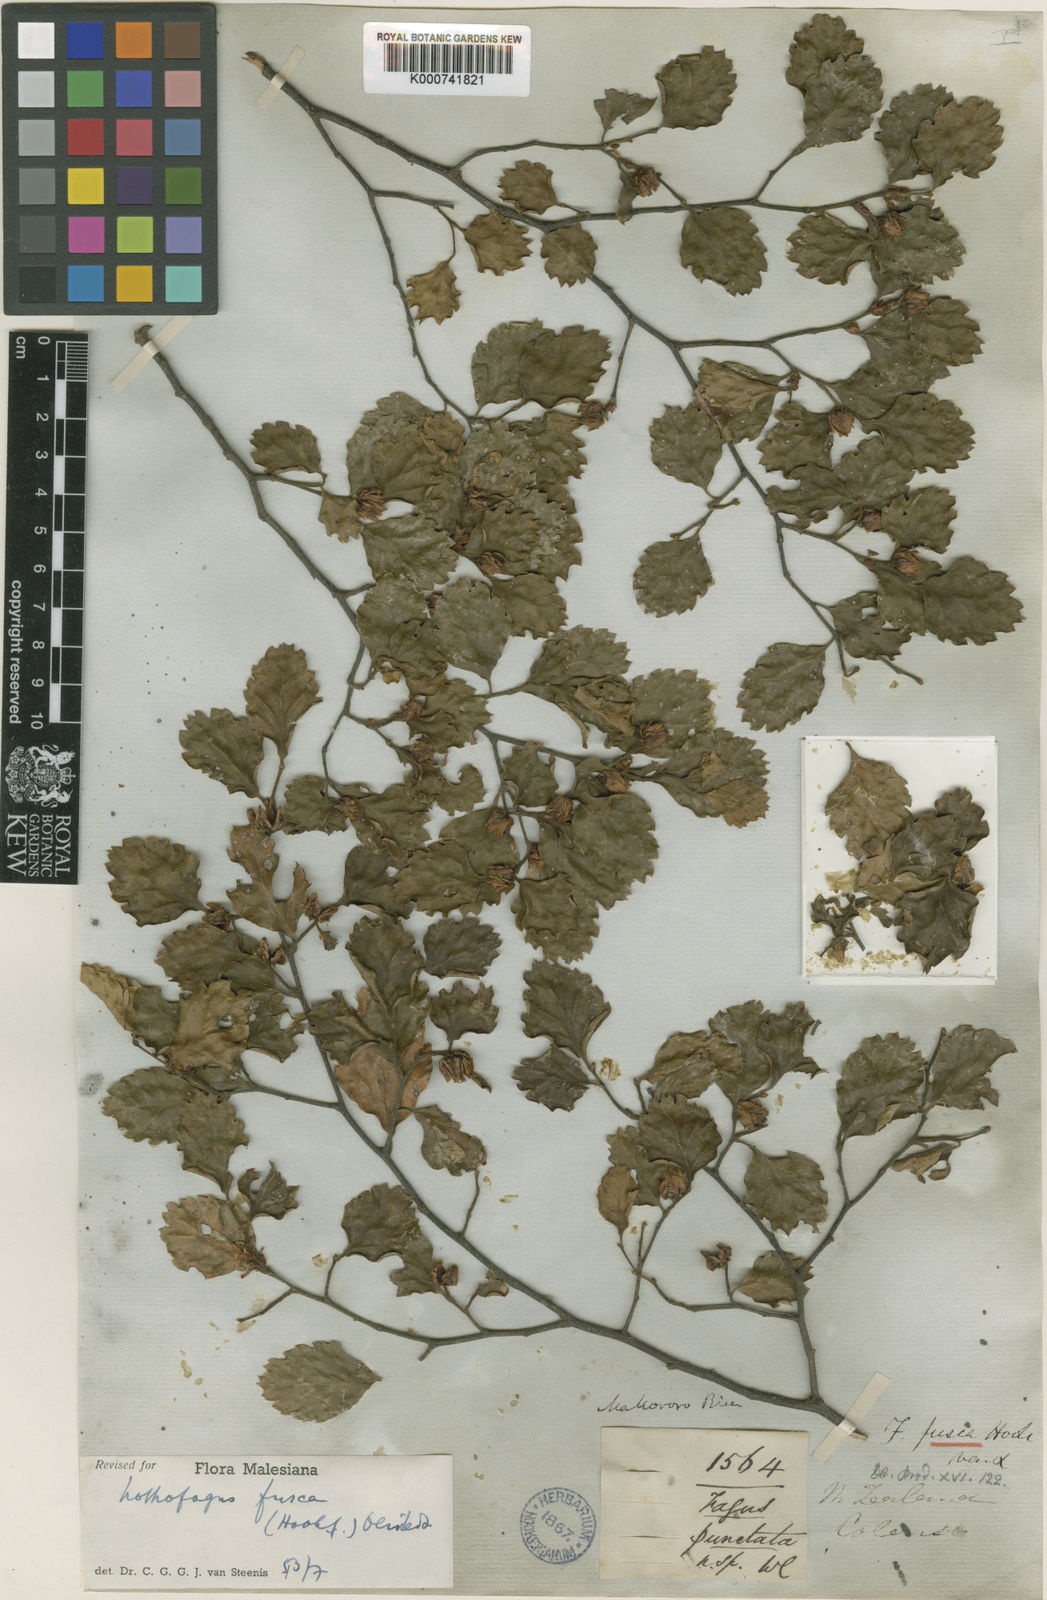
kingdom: Plantae
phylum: Tracheophyta
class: Magnoliopsida
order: Fagales
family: Nothofagaceae
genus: Nothofagus
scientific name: Nothofagus fusca
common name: Red beech
